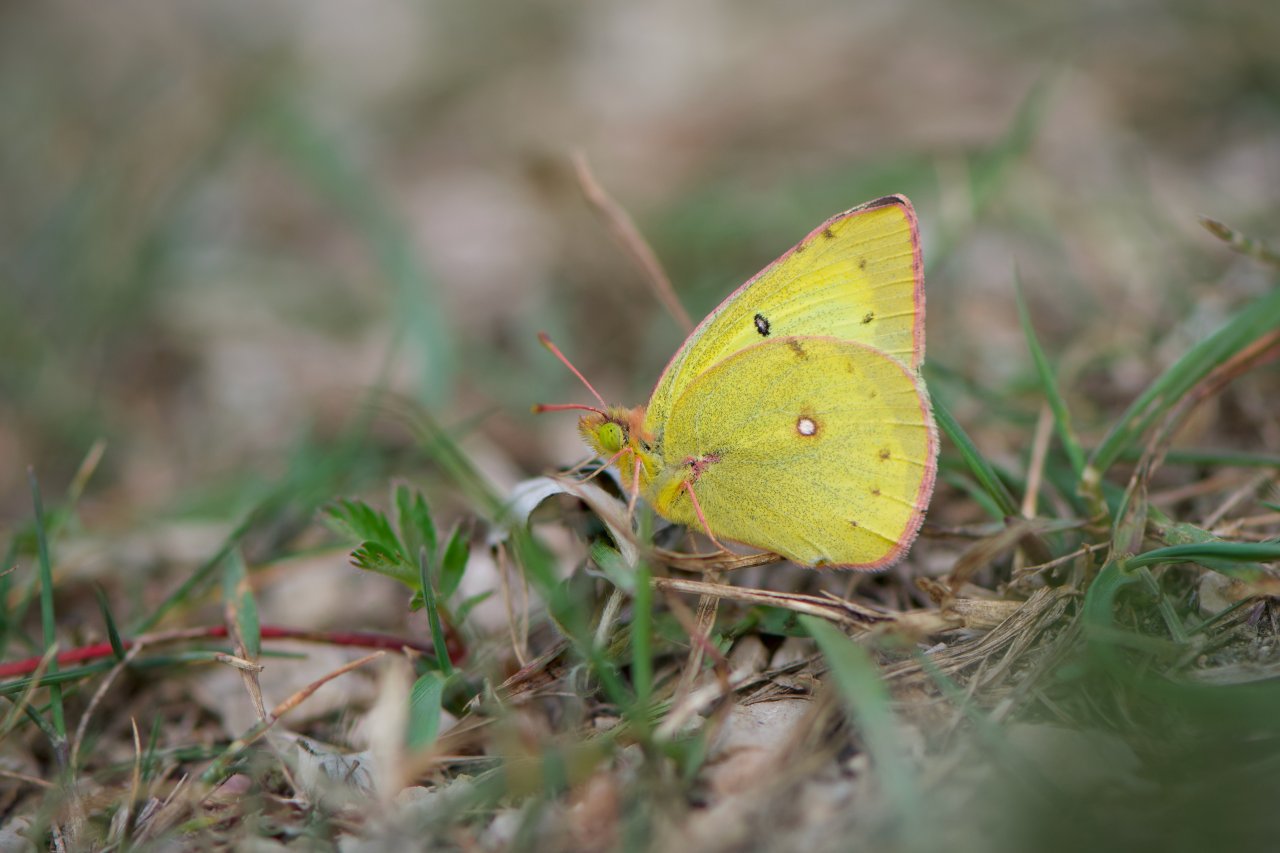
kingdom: Animalia
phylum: Arthropoda
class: Insecta
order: Lepidoptera
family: Pieridae
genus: Colias
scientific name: Colias philodice
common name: Clouded Sulphur
